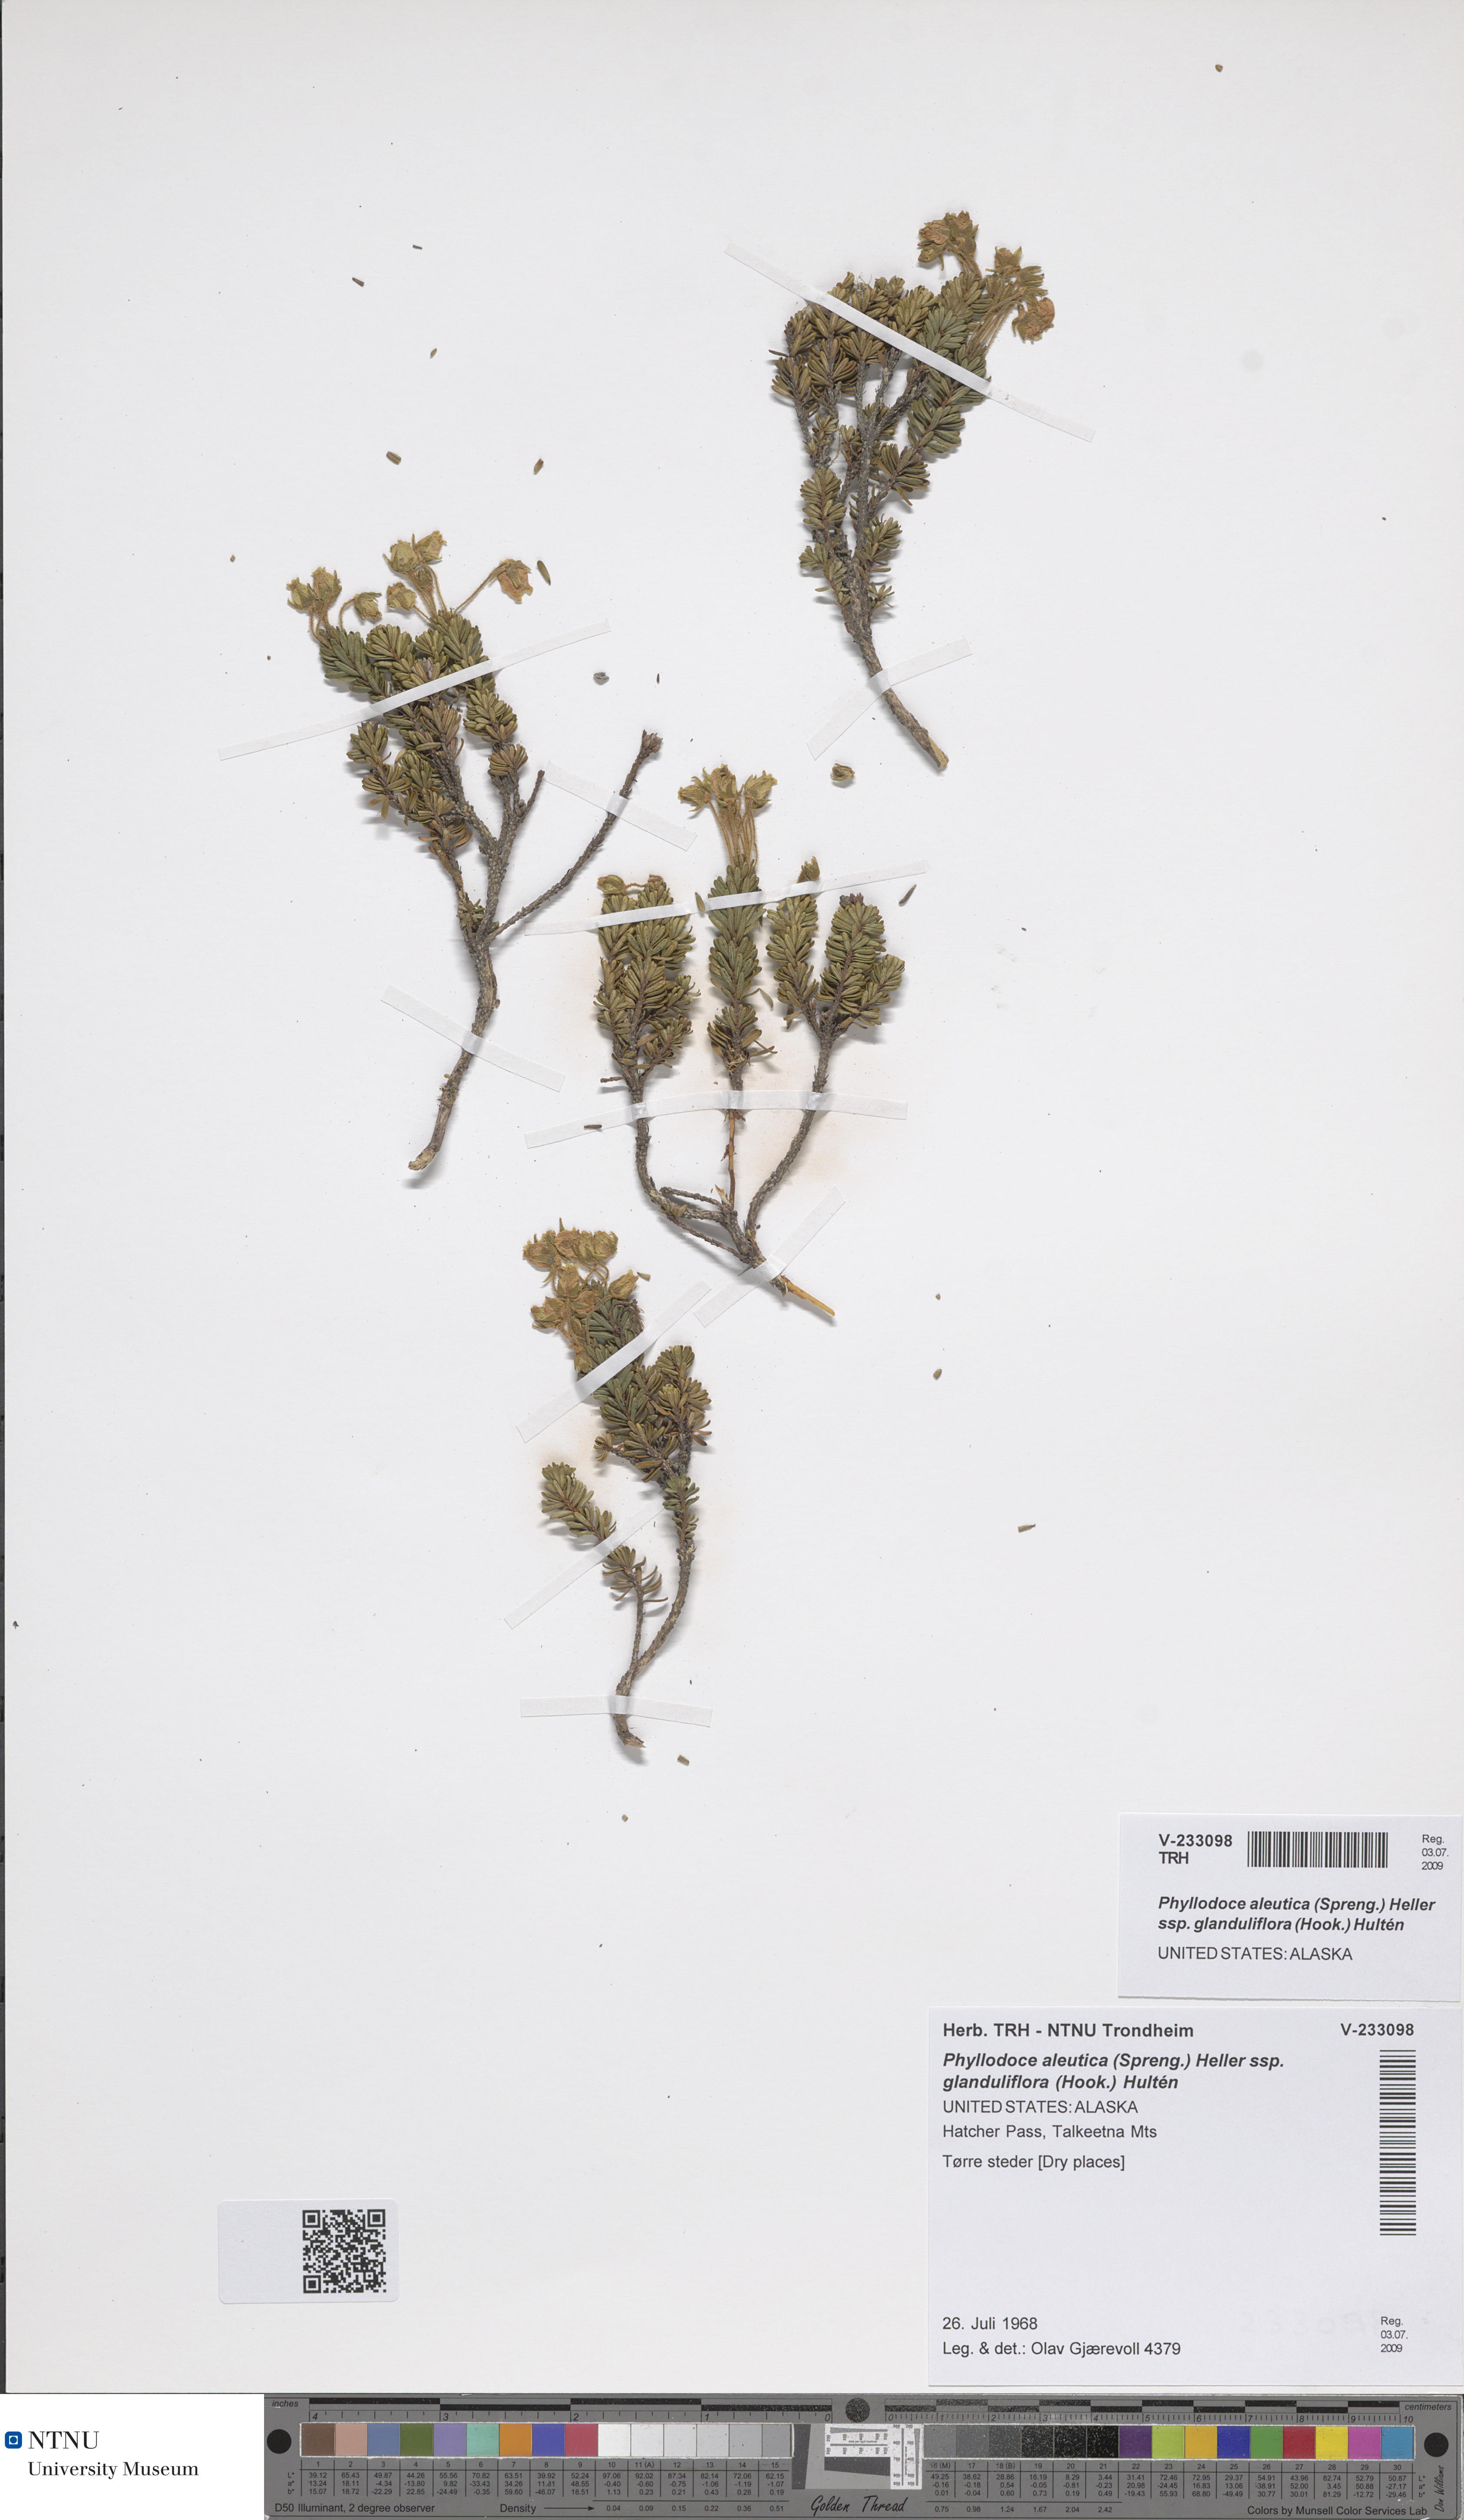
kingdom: Plantae
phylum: Tracheophyta
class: Magnoliopsida
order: Ericales
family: Ericaceae
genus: Phyllodoce
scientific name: Phyllodoce glanduliflora
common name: Cream mountain heather
